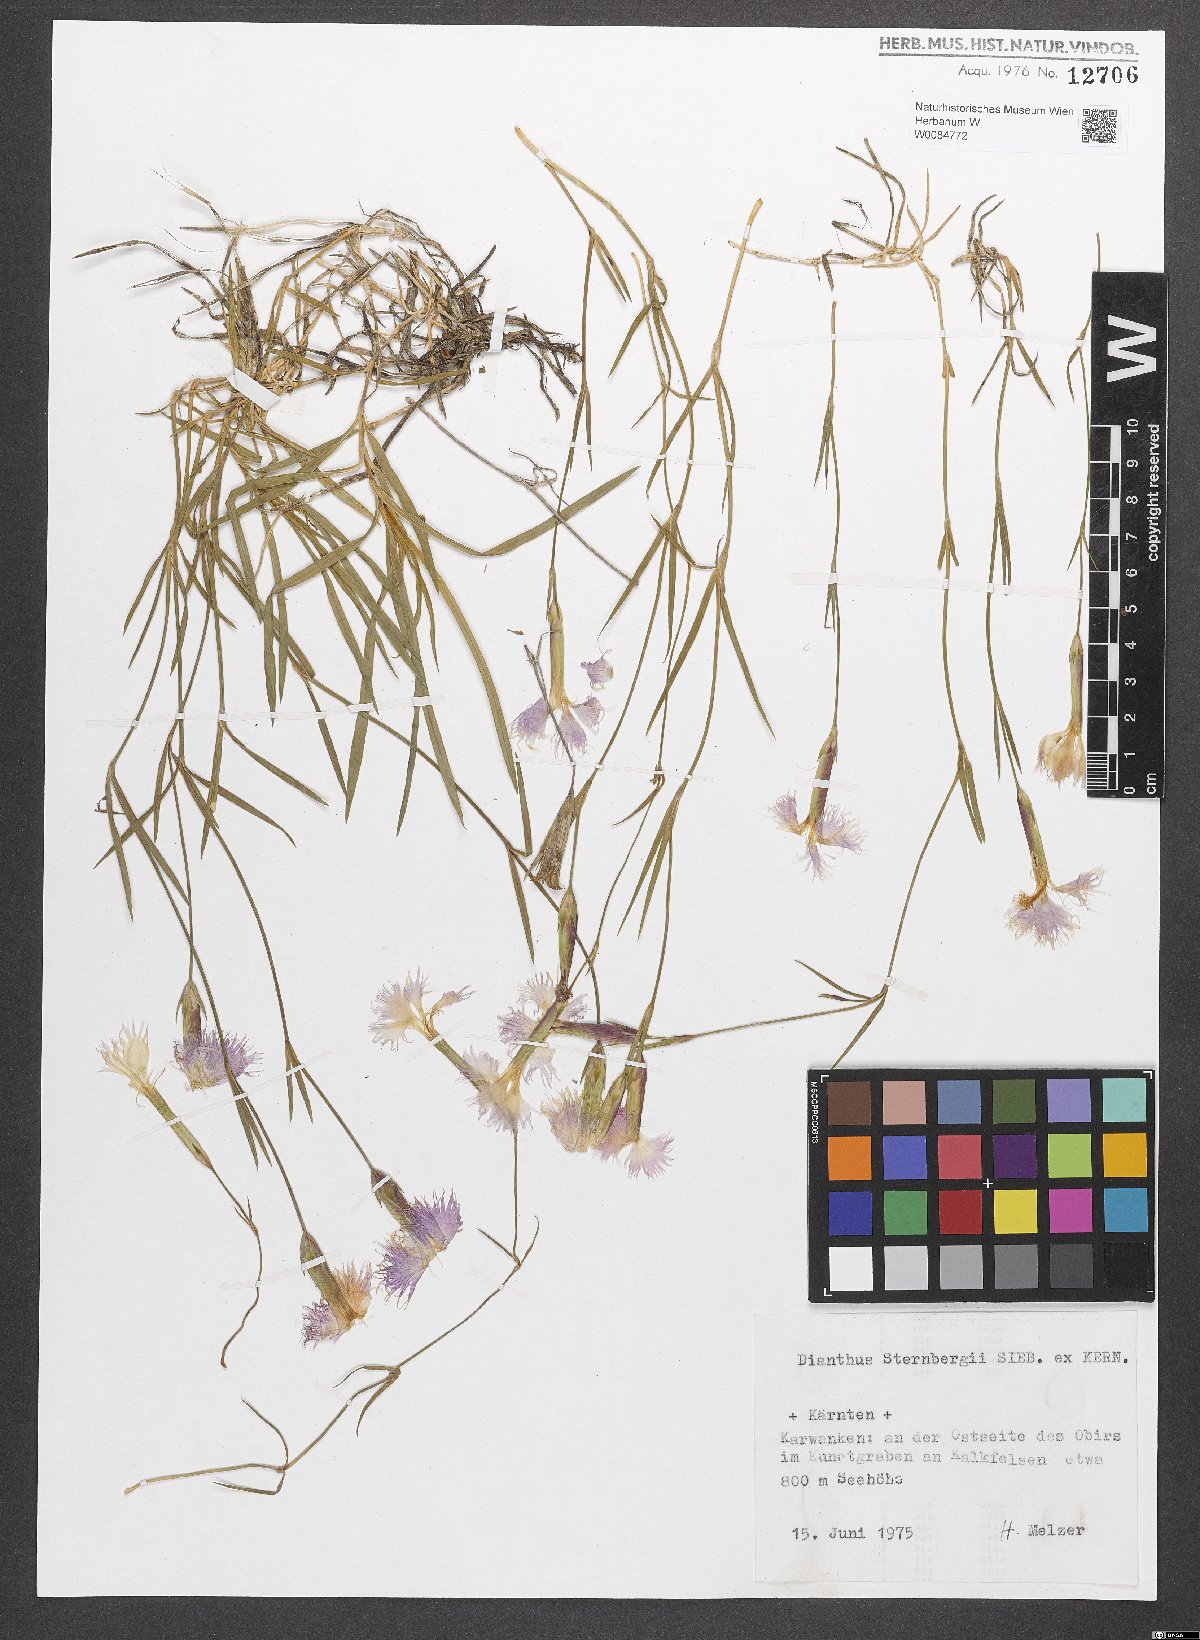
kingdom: Plantae
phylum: Tracheophyta
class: Magnoliopsida
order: Caryophyllales
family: Caryophyllaceae
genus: Dianthus
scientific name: Dianthus monspessulanus
